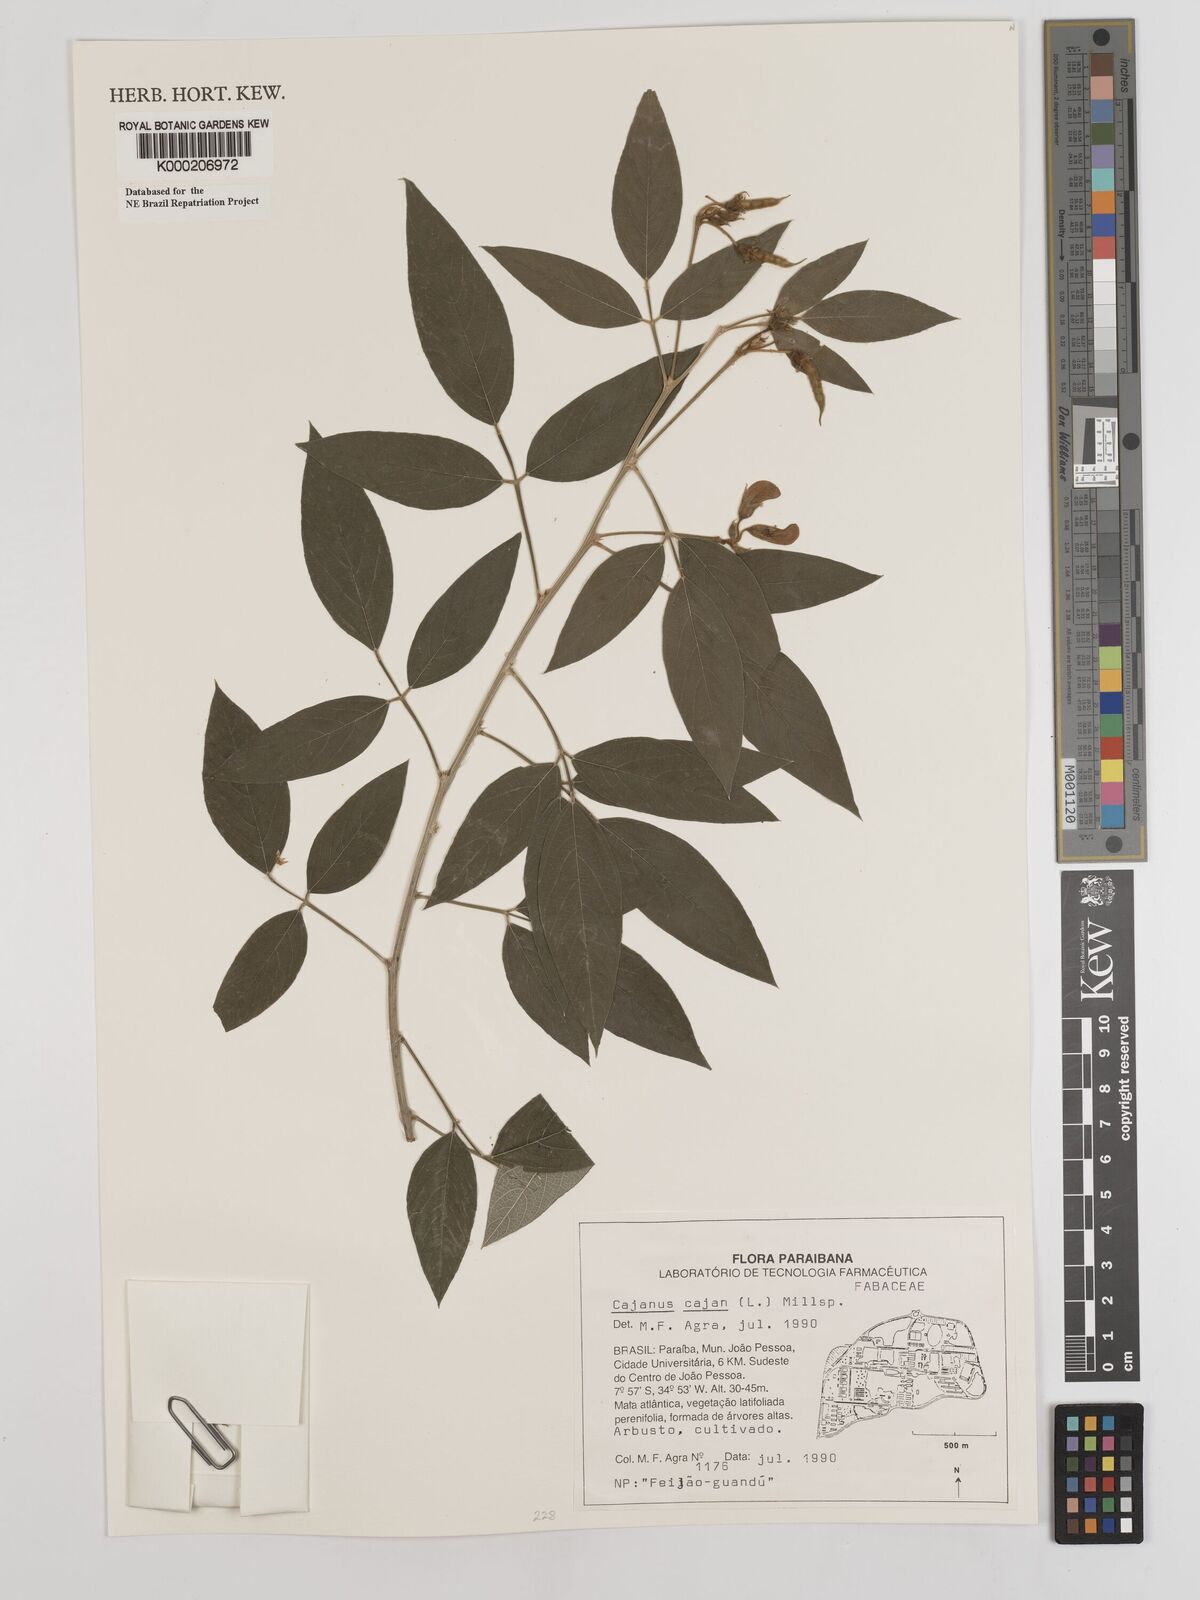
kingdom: Plantae
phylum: Tracheophyta
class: Magnoliopsida
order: Fabales
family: Fabaceae
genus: Cajanus
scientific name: Cajanus
